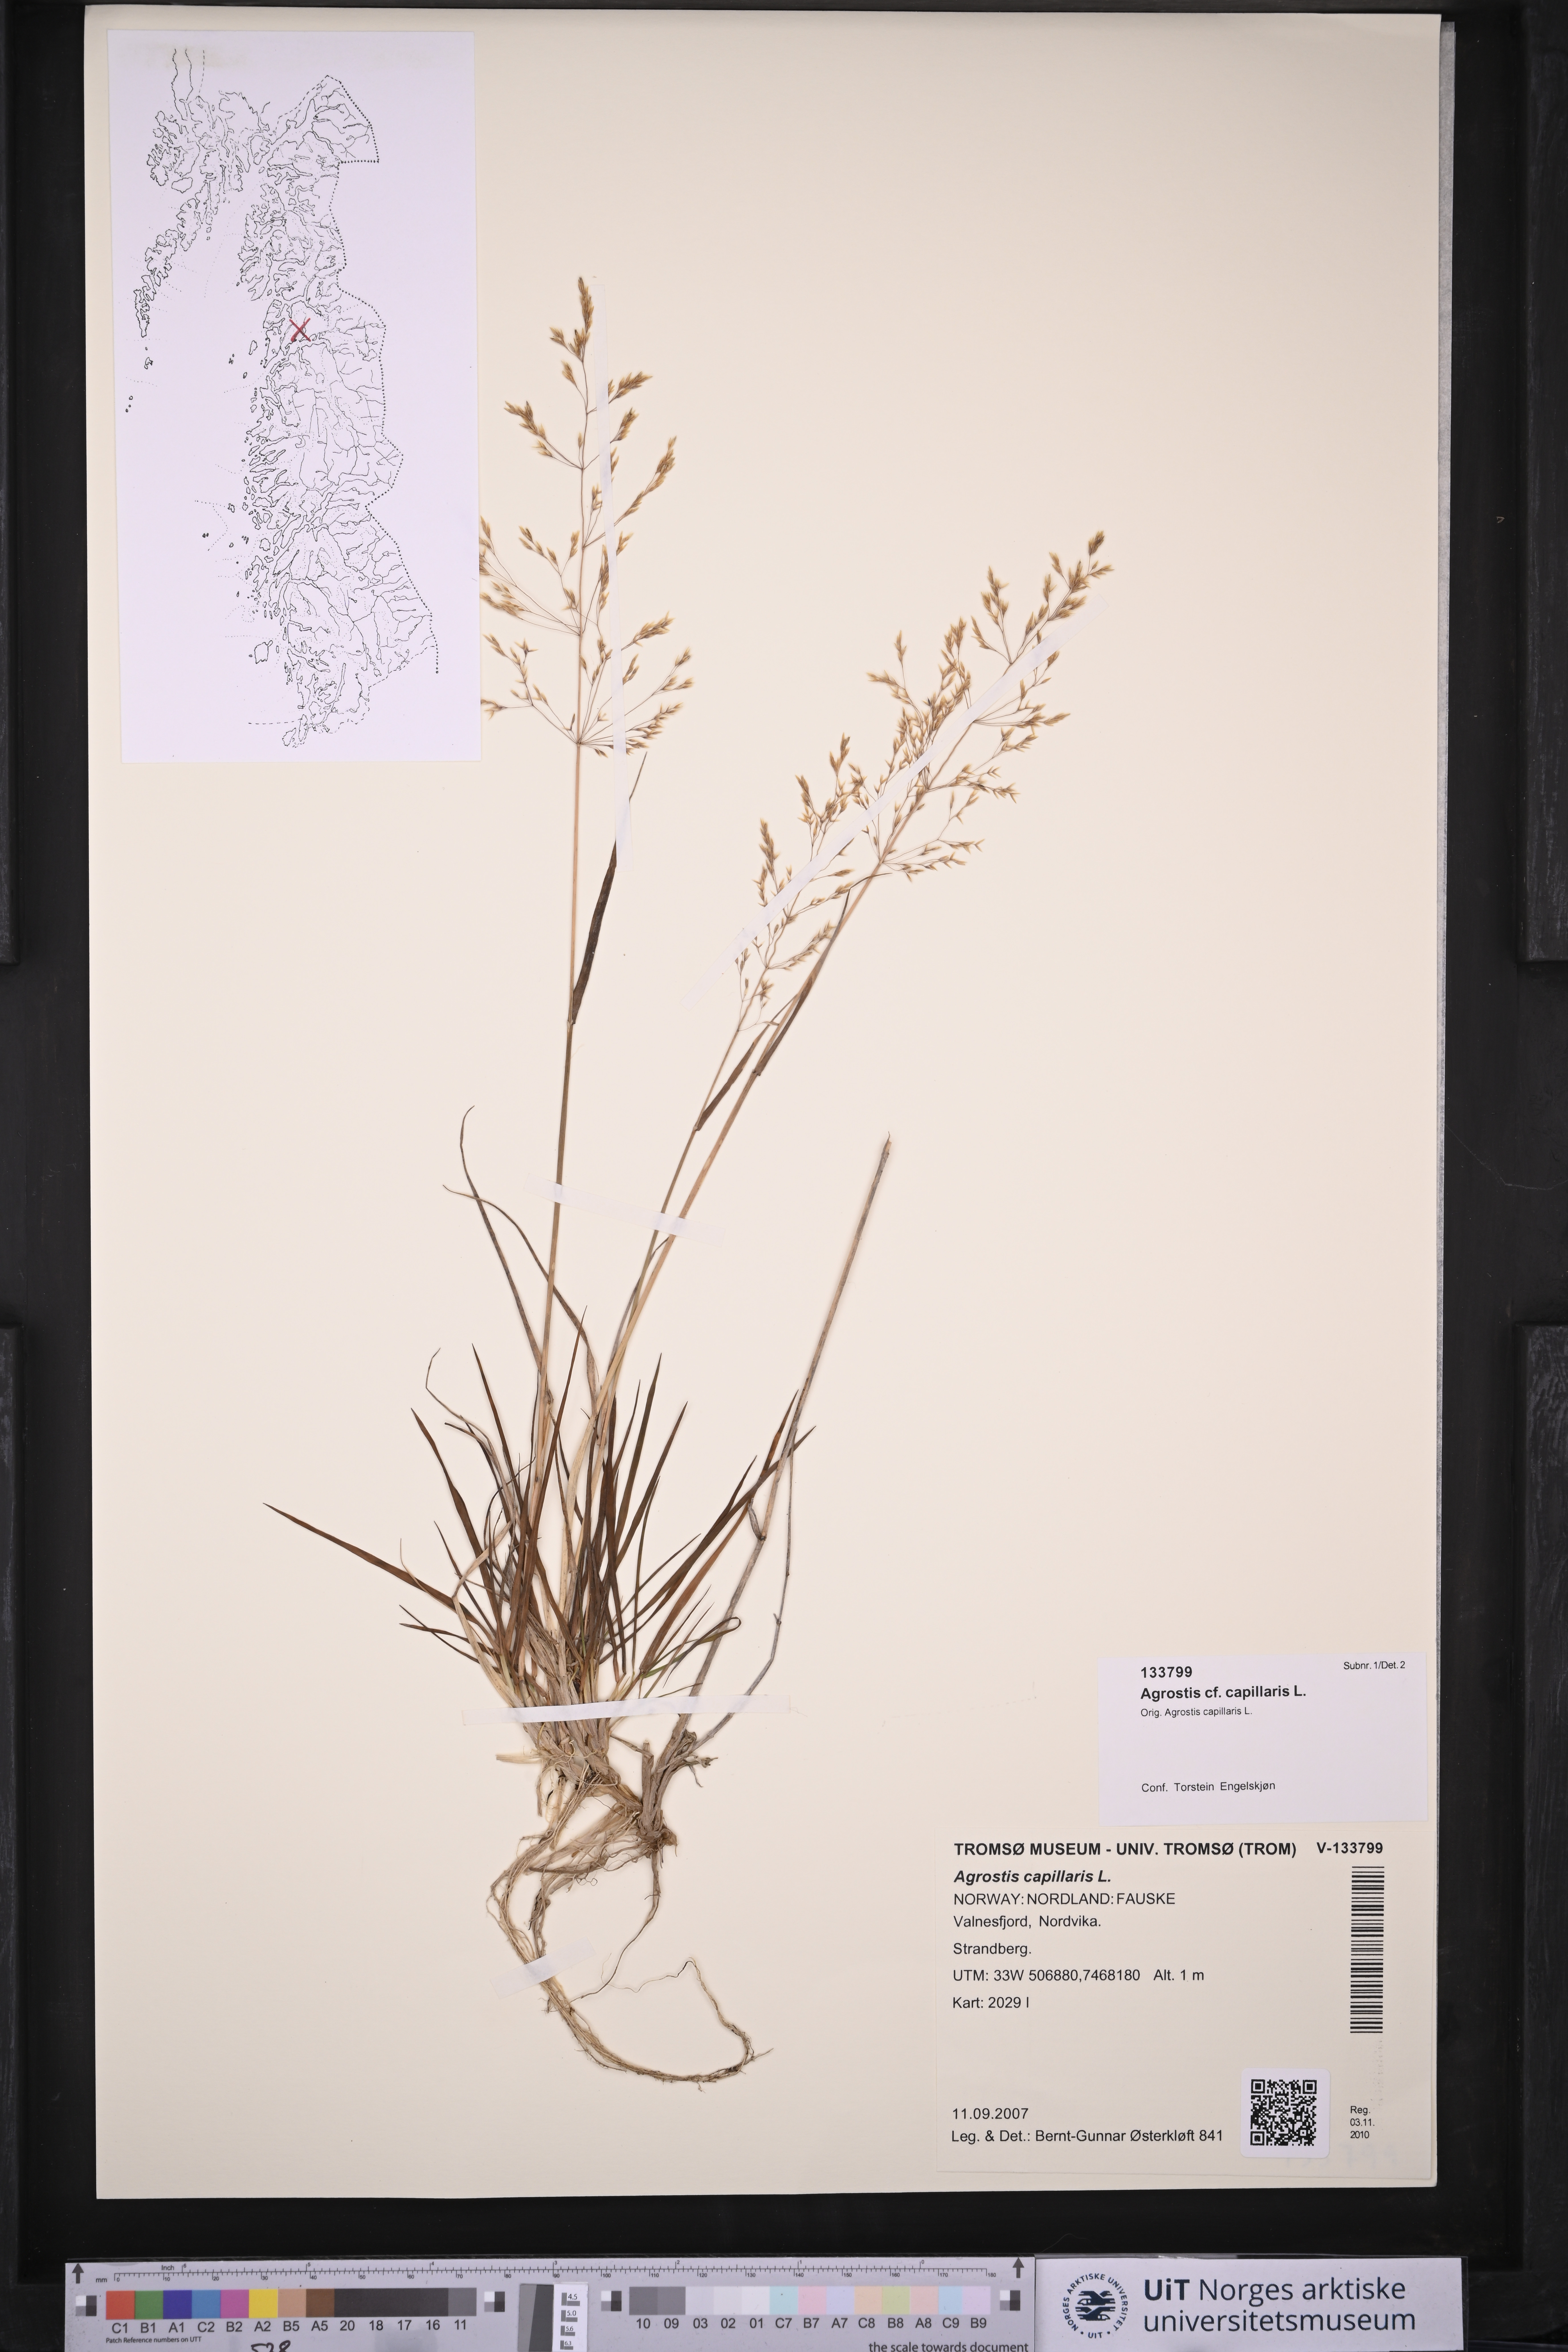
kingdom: Plantae
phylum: Tracheophyta
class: Liliopsida
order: Poales
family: Poaceae
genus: Agrostis
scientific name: Agrostis capillaris
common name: Colonial bentgrass
